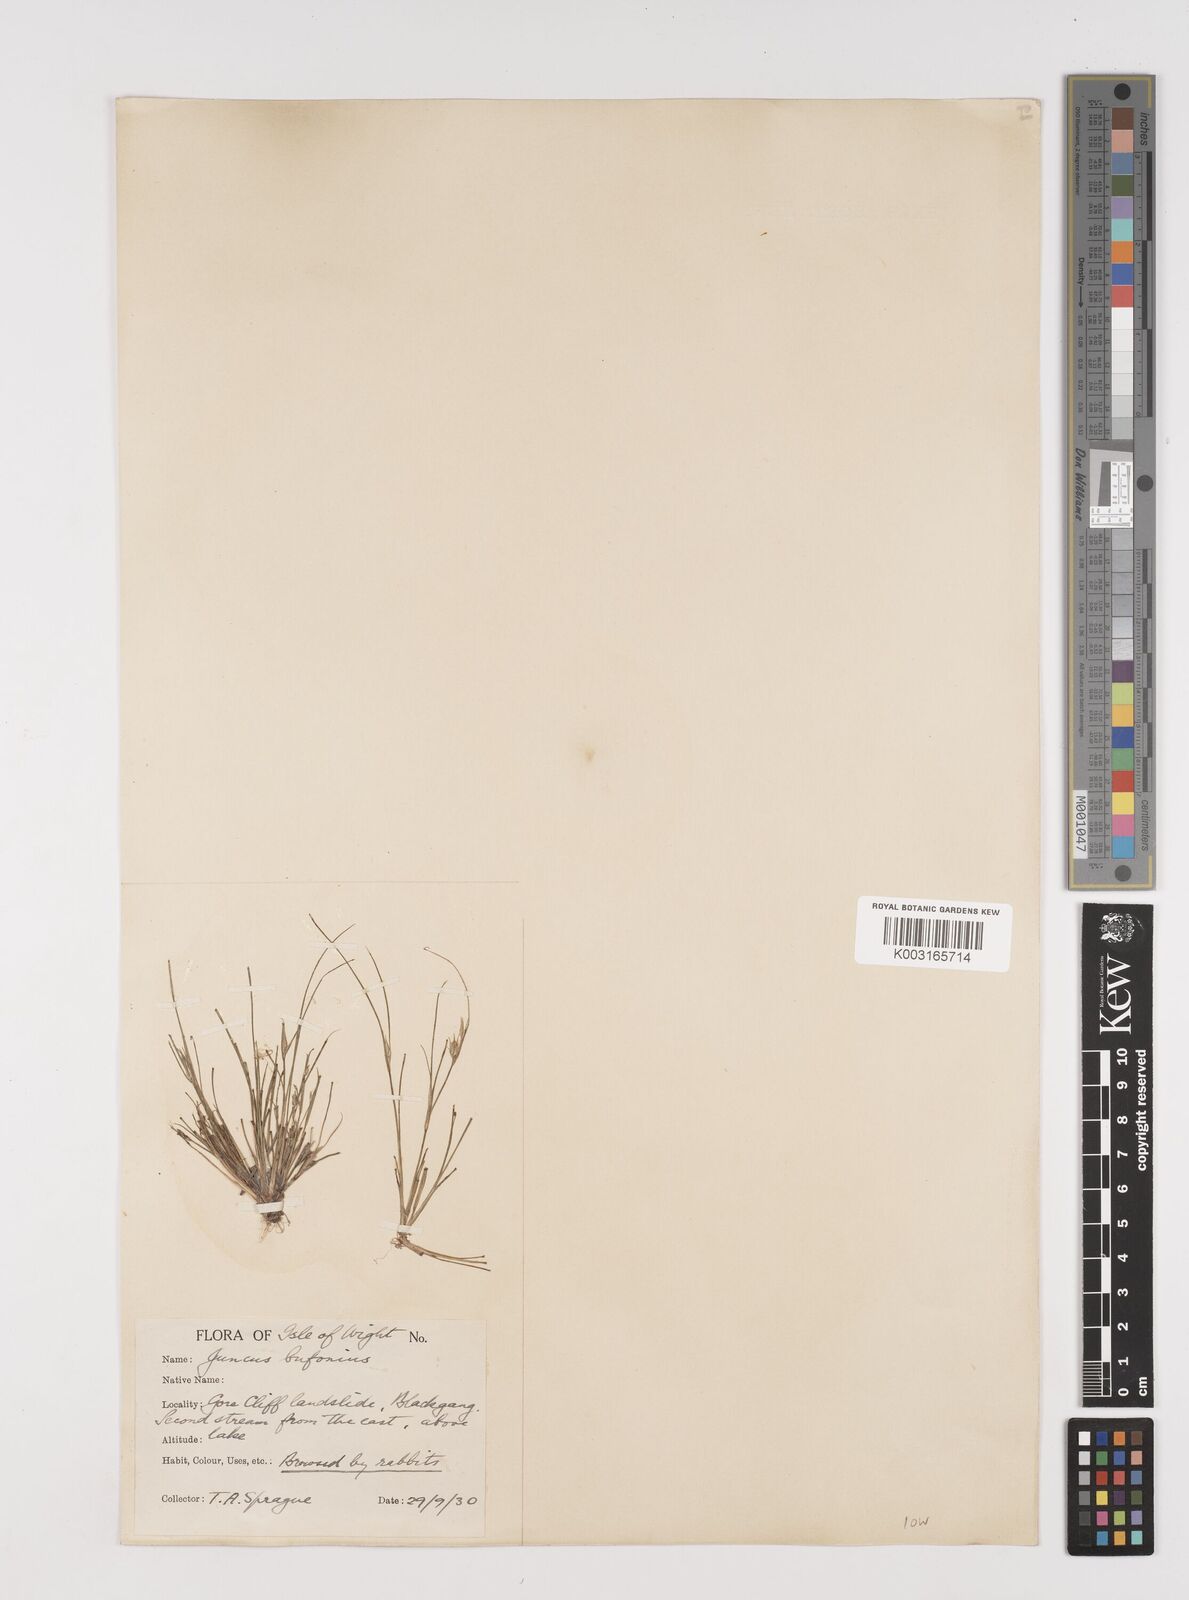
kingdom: Plantae
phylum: Tracheophyta
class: Liliopsida
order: Poales
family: Juncaceae
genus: Juncus
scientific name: Juncus bufonius
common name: Toad rush
